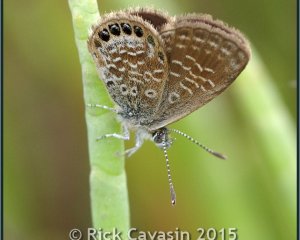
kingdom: Animalia
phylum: Arthropoda
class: Insecta
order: Lepidoptera
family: Lycaenidae
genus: Brephidium
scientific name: Brephidium isophthalma
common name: Eastern Pygmy-Blue
